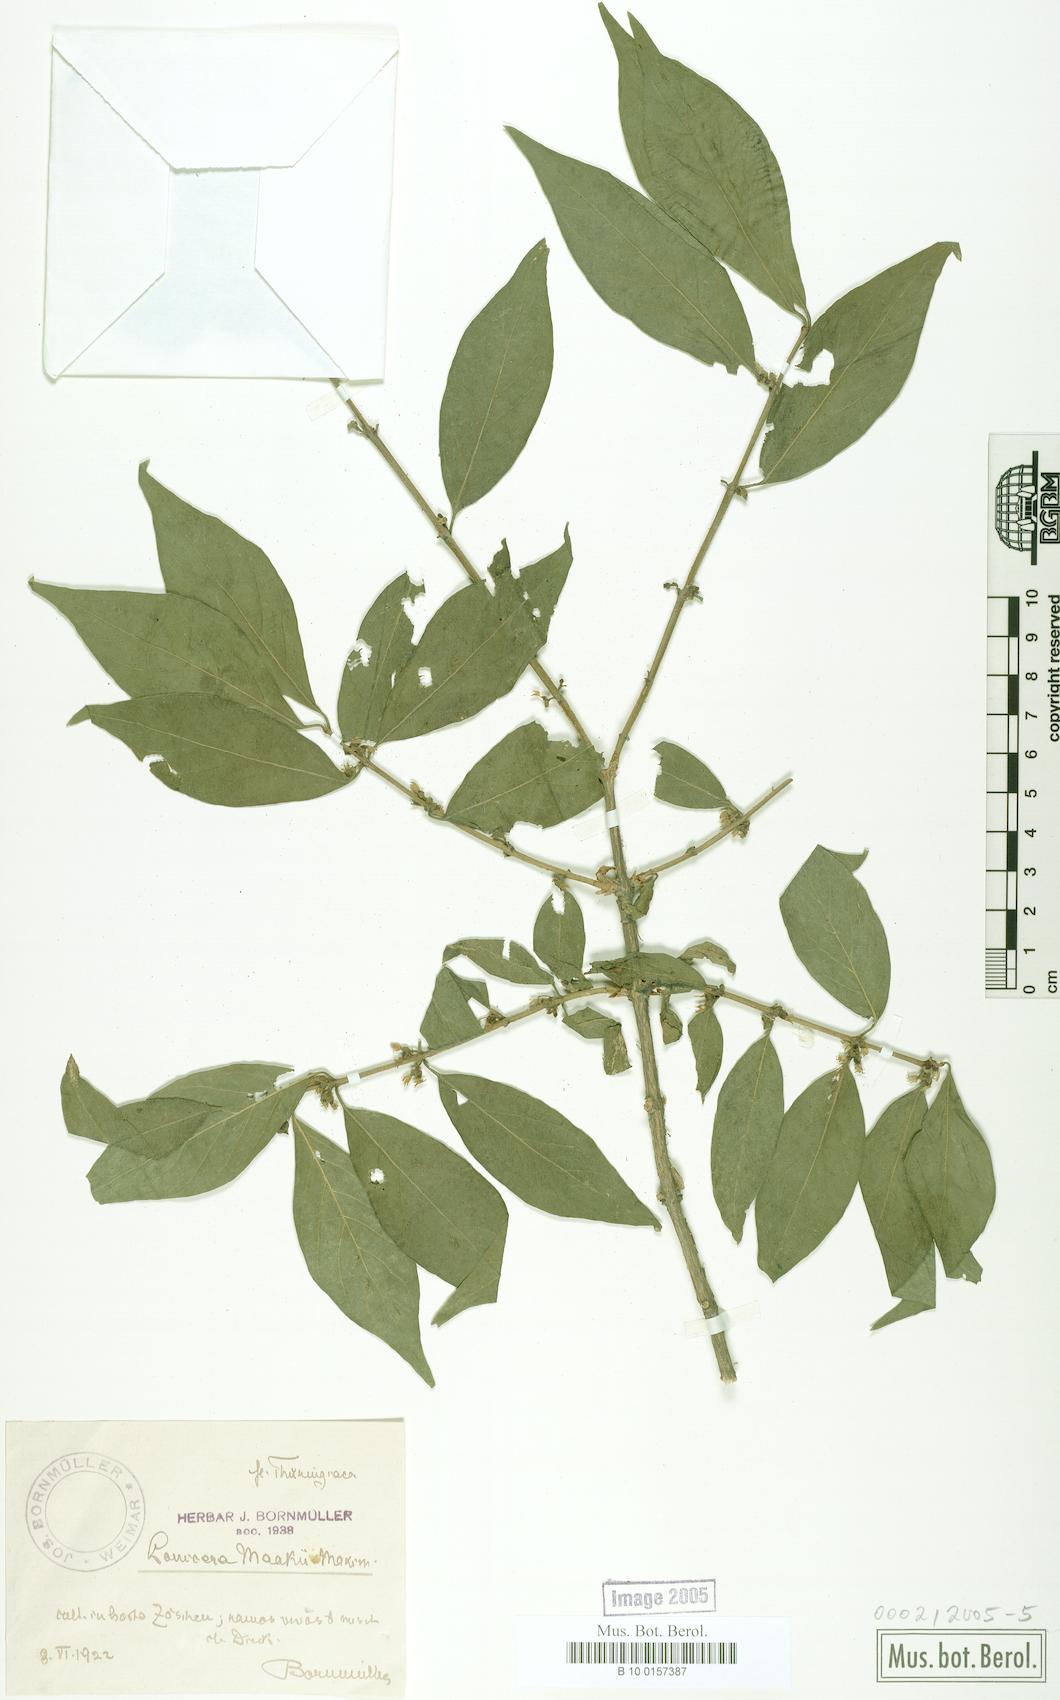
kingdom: Plantae
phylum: Tracheophyta
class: Magnoliopsida
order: Dipsacales
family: Caprifoliaceae
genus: Lonicera
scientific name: Lonicera maackii
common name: Amur honeysuckle
